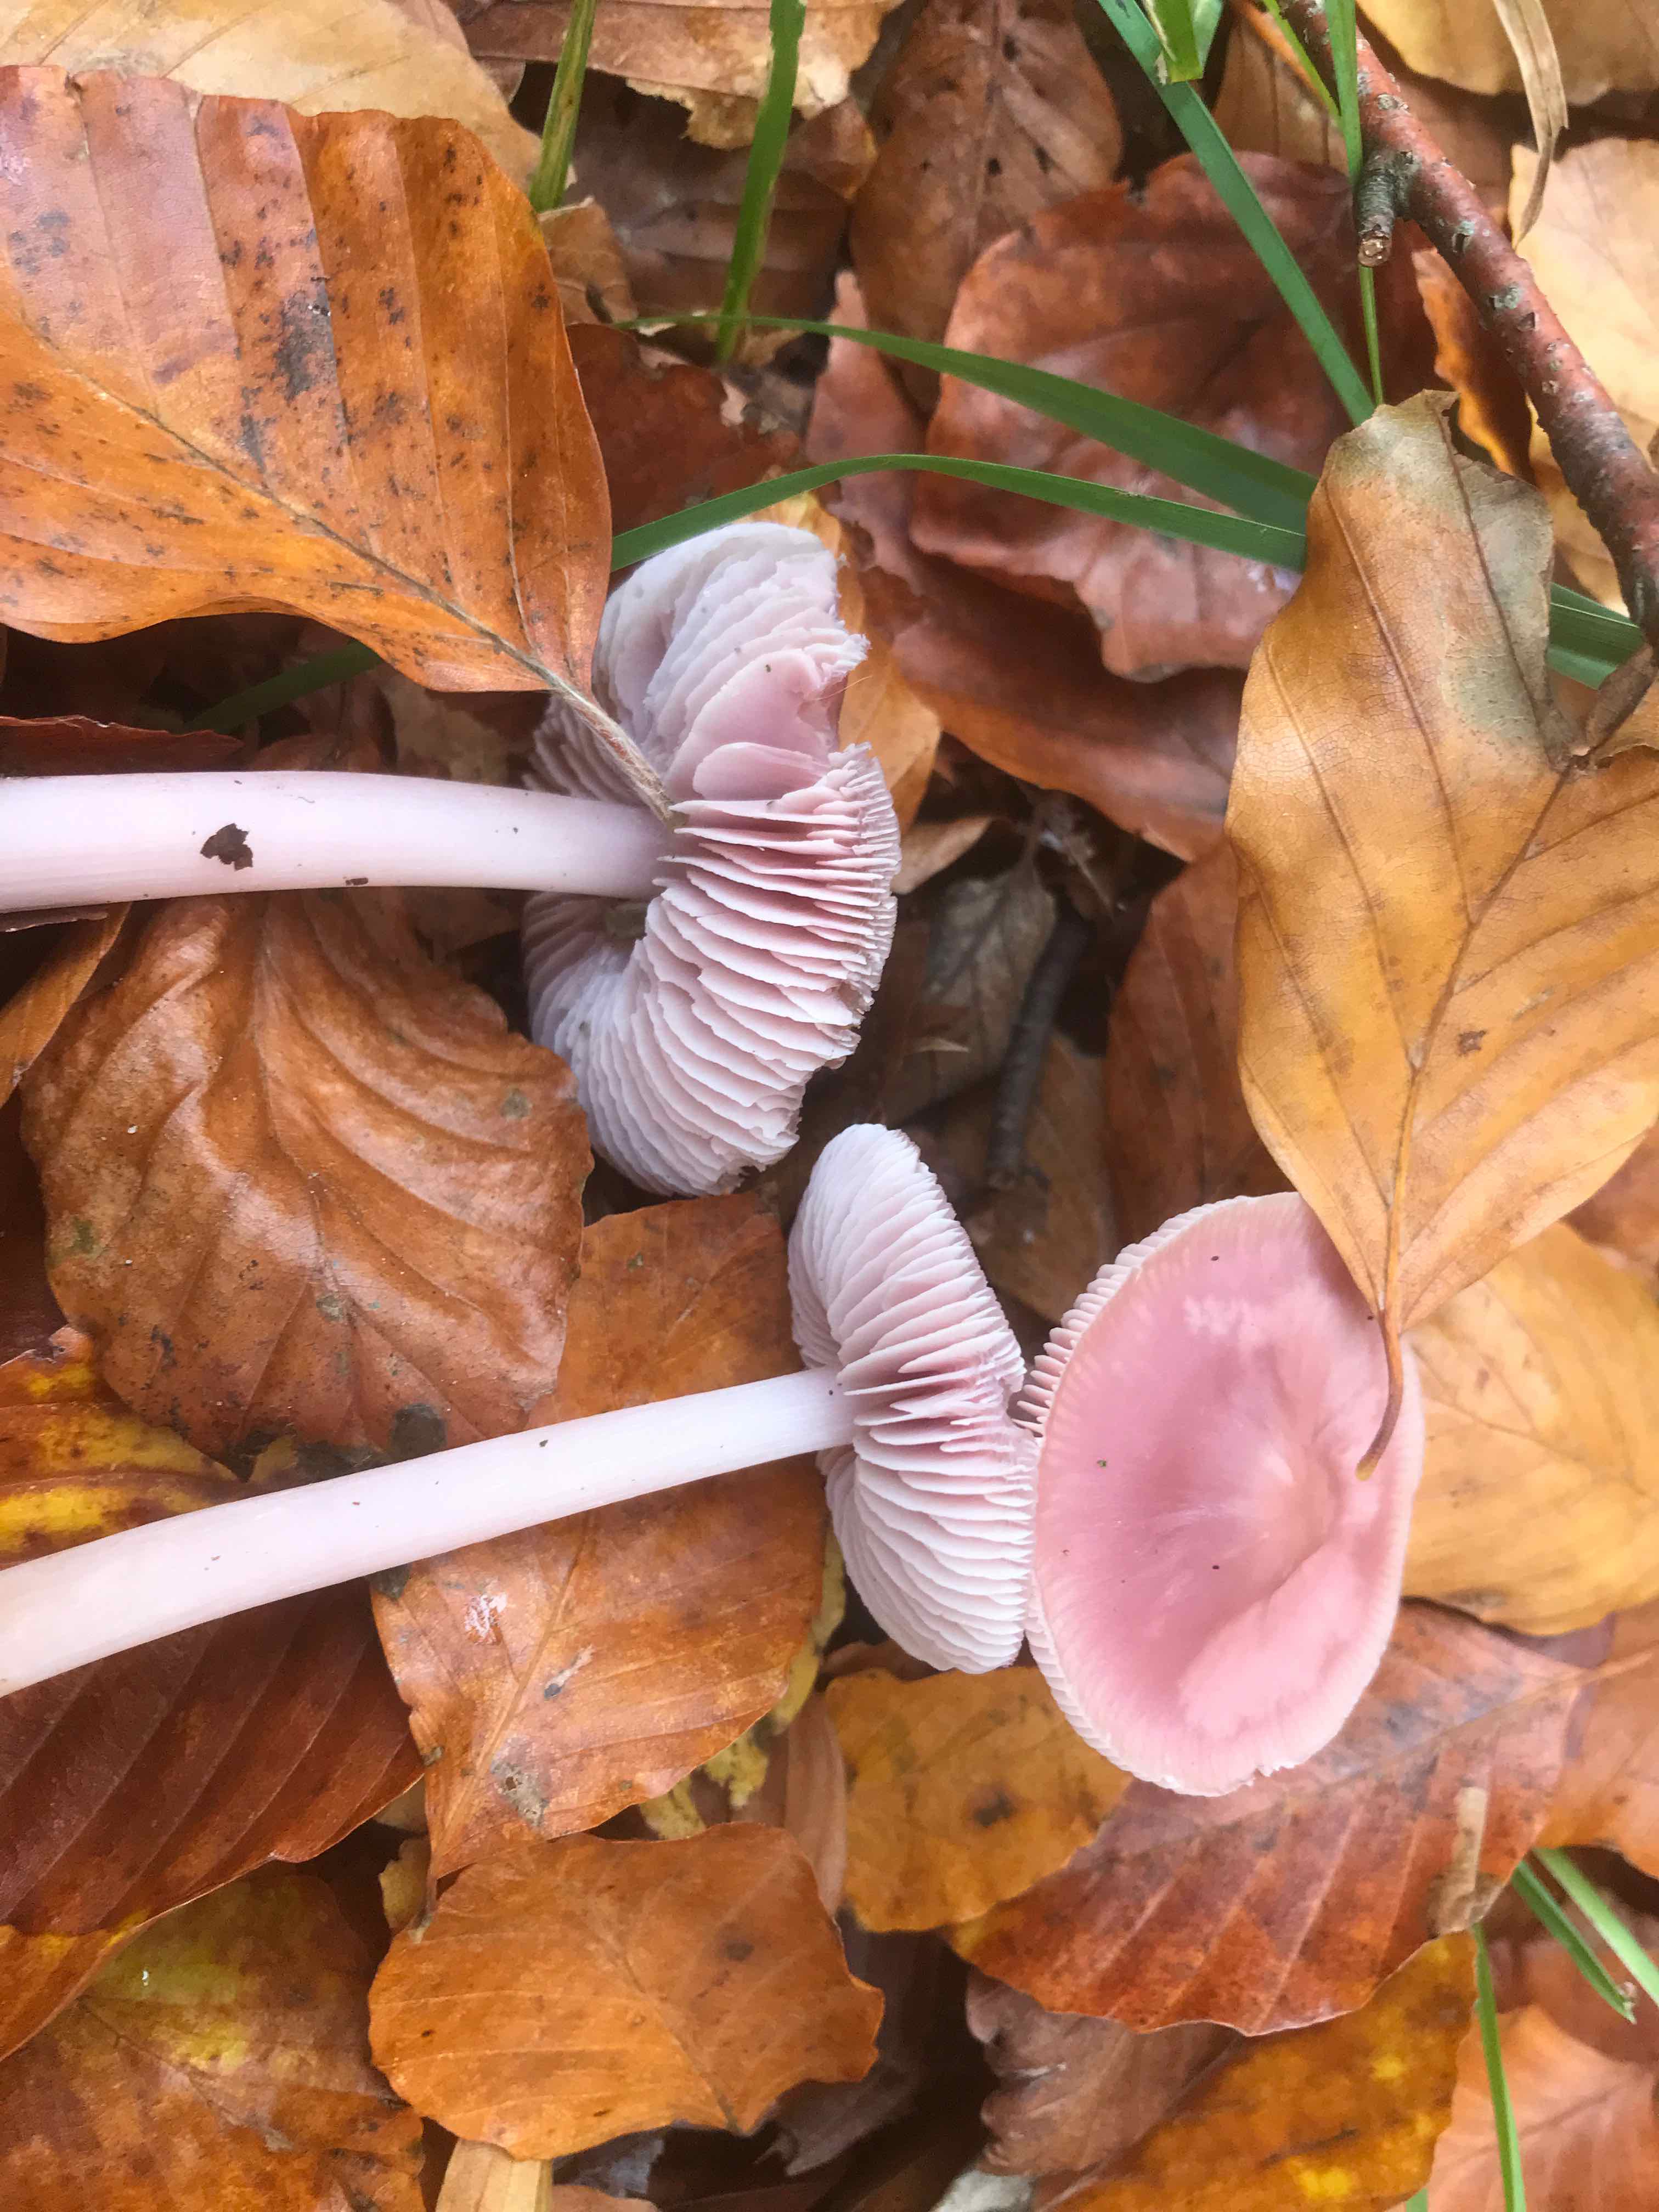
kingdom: Fungi
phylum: Basidiomycota
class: Agaricomycetes
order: Agaricales
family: Mycenaceae
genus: Mycena
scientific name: Mycena rosea
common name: rosa huesvamp
